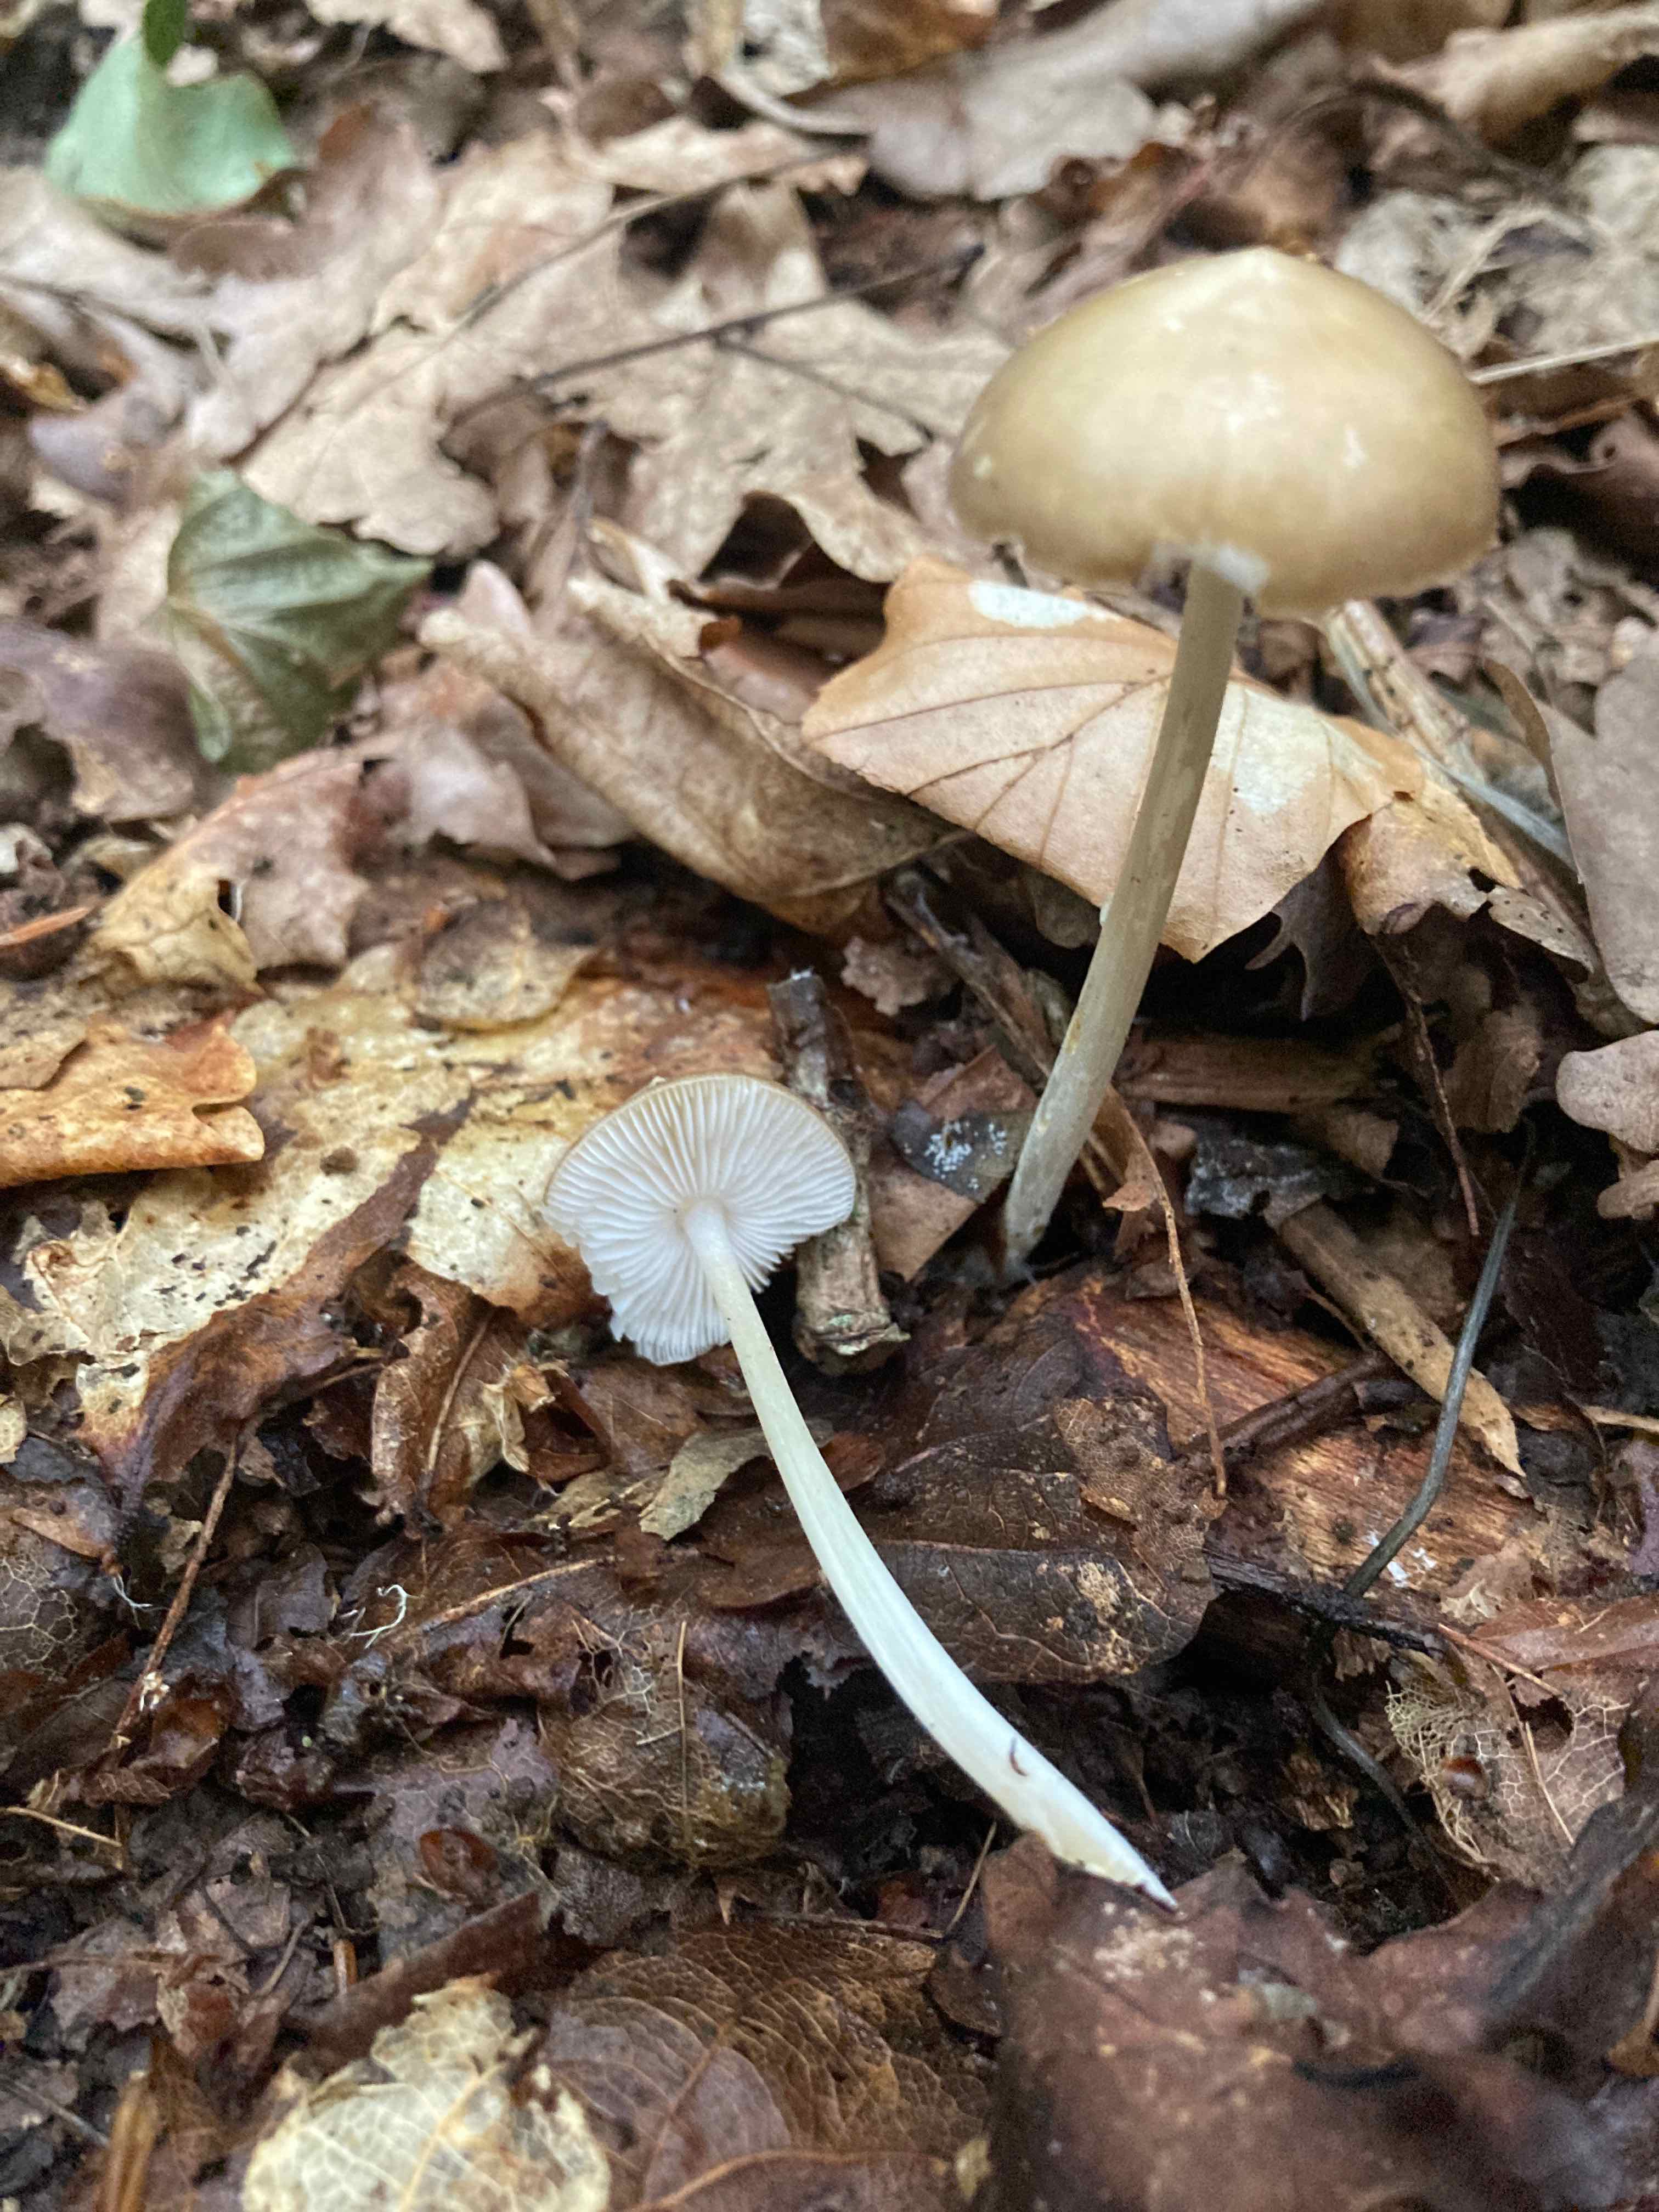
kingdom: Fungi
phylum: Basidiomycota
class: Agaricomycetes
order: Agaricales
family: Porotheleaceae
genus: Hydropodia
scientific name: Hydropodia subalpina
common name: vår-fnugfod
